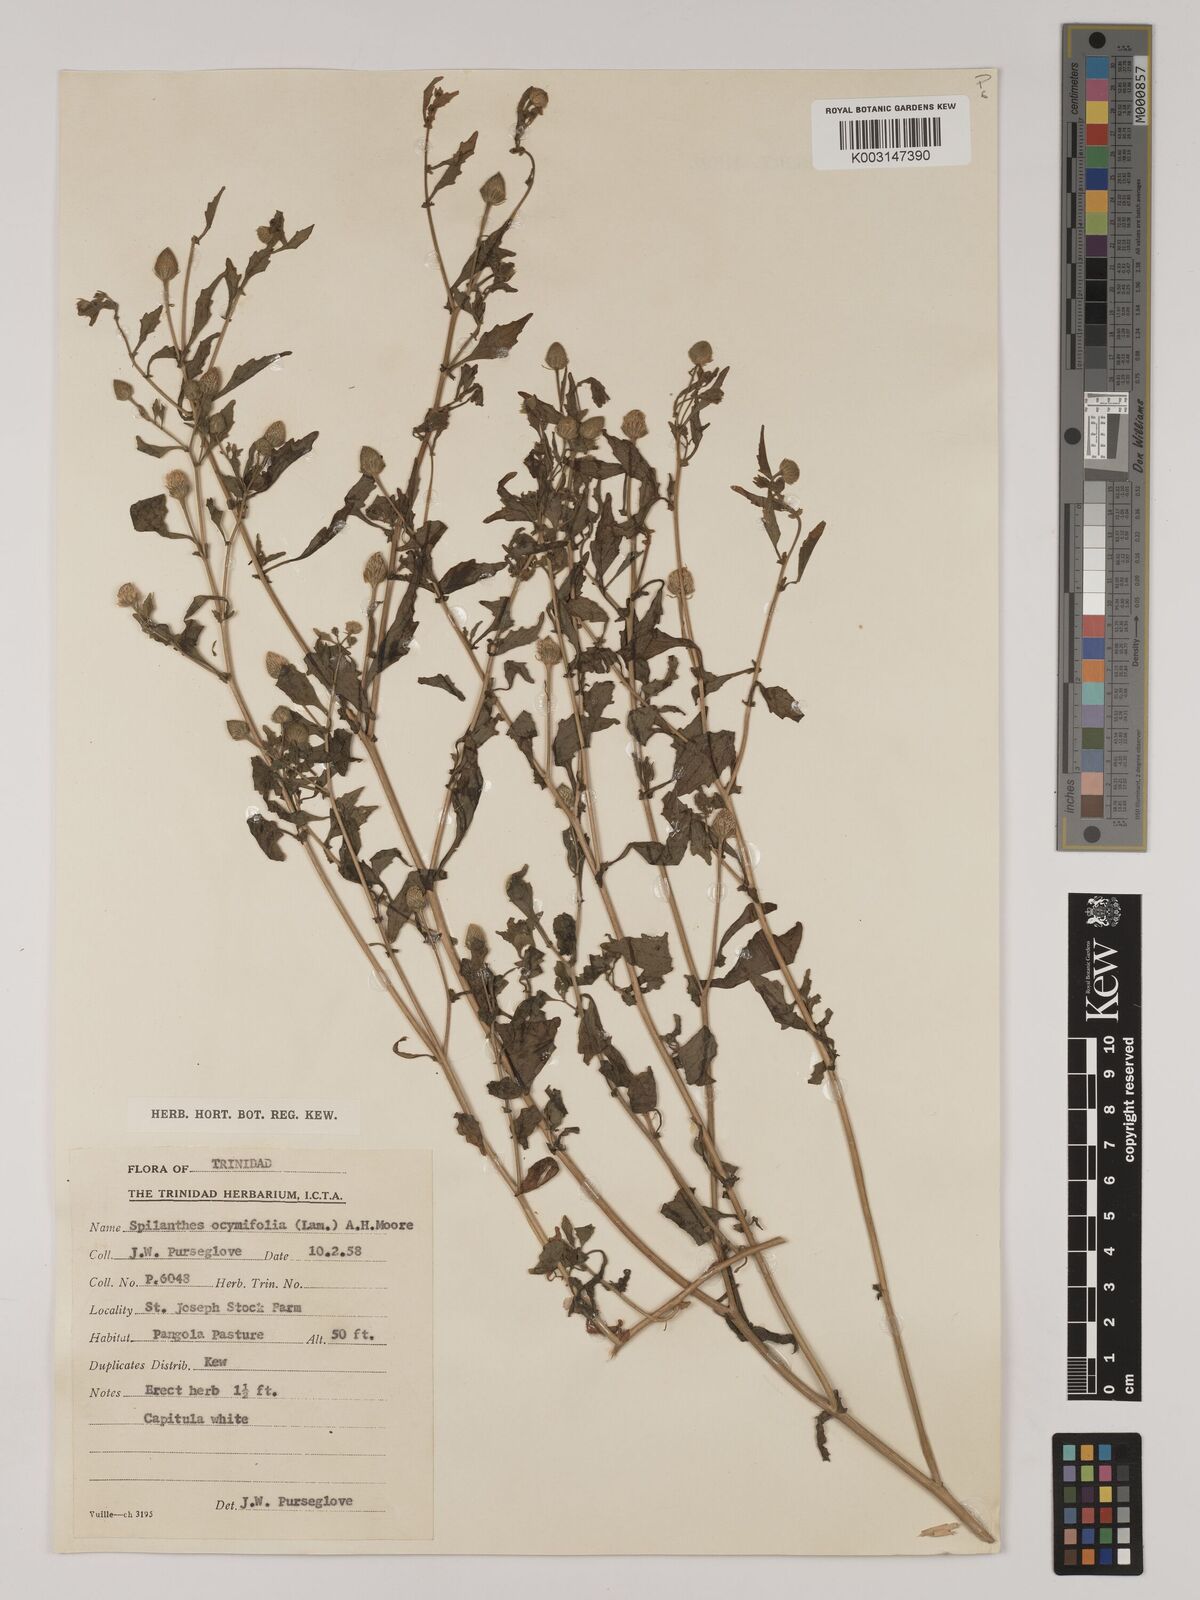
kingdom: Plantae
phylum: Tracheophyta
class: Magnoliopsida
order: Asterales
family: Asteraceae
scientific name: Asteraceae
